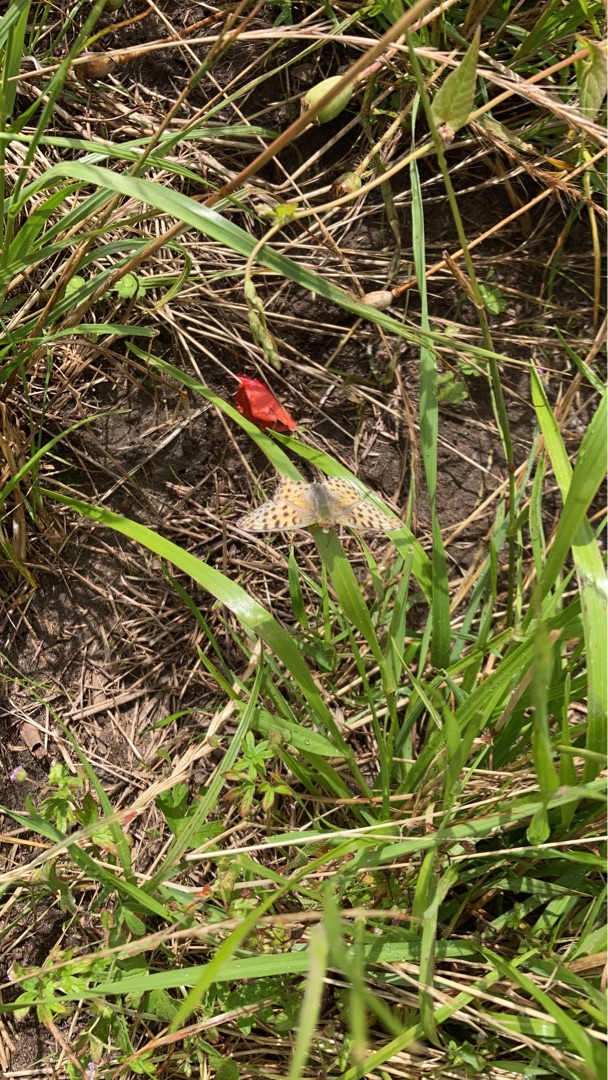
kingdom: Animalia
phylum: Arthropoda
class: Insecta
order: Lepidoptera
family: Nymphalidae
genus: Issoria
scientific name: Issoria lathonia
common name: Storplettet perlemorsommerfugl
